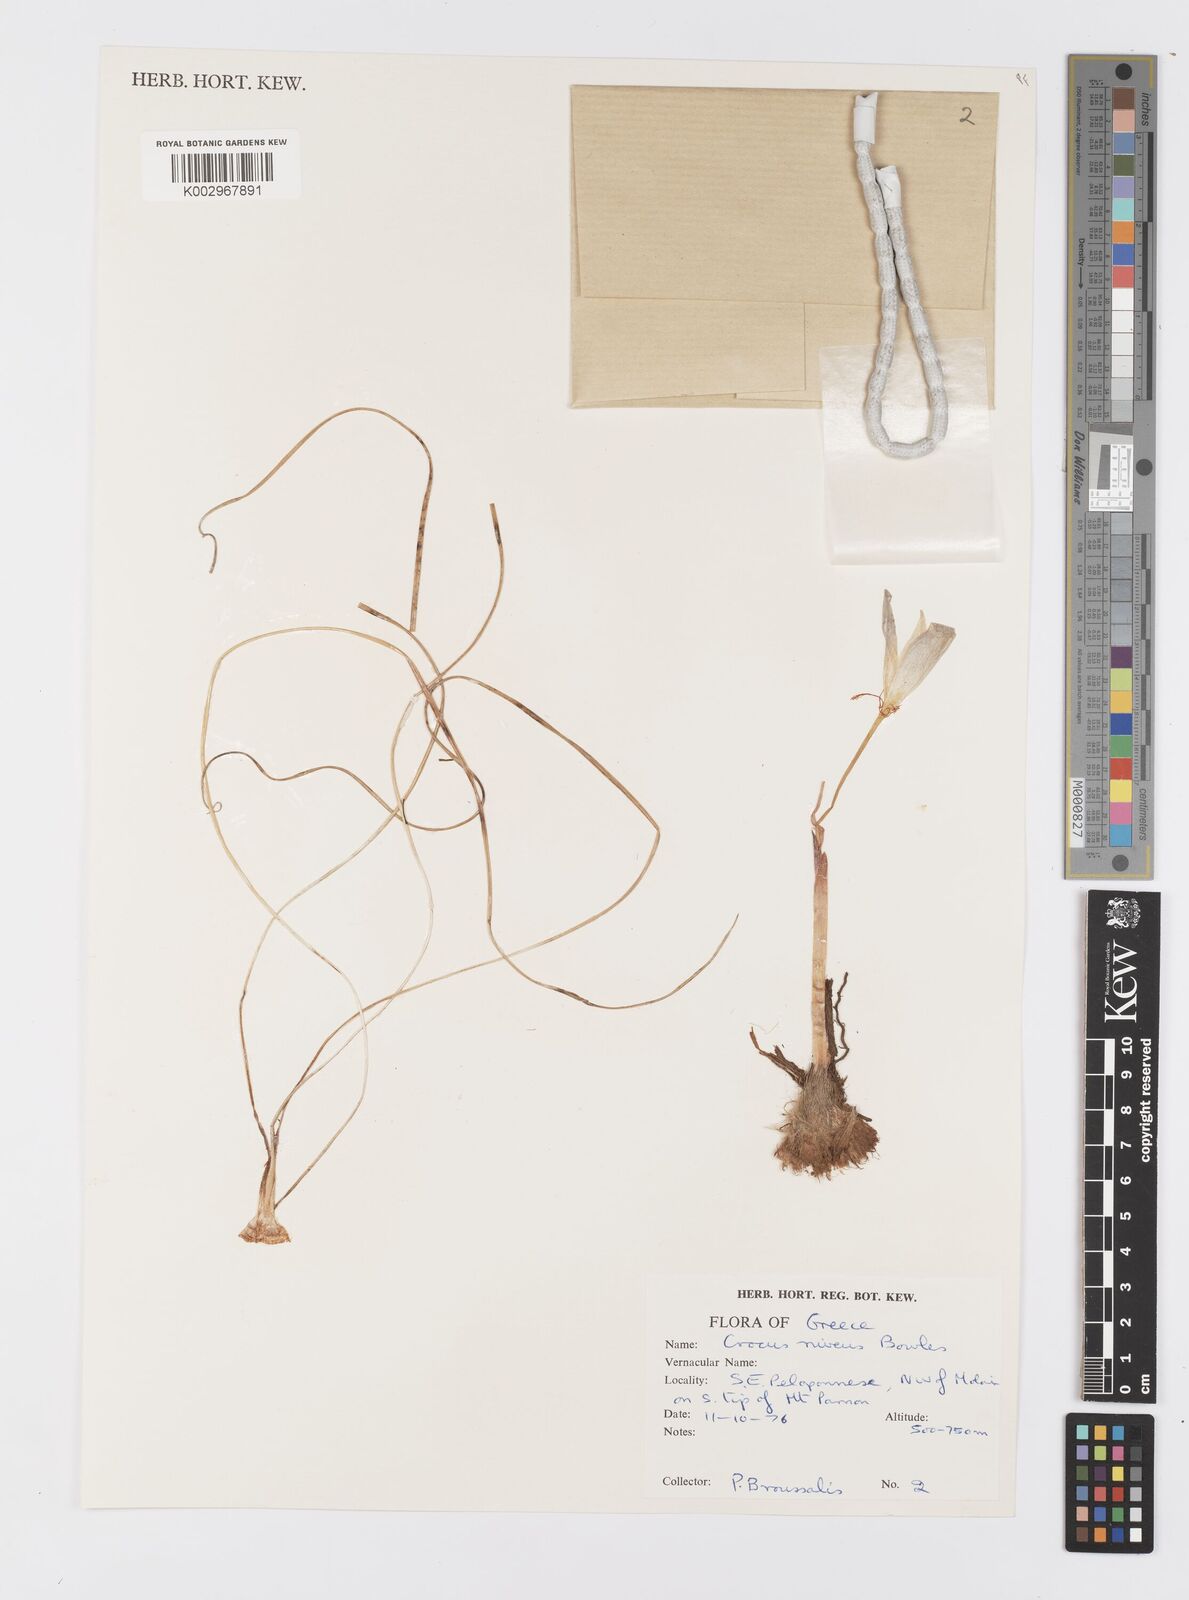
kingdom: Plantae
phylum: Tracheophyta
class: Liliopsida
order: Asparagales
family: Iridaceae
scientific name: Iridaceae
